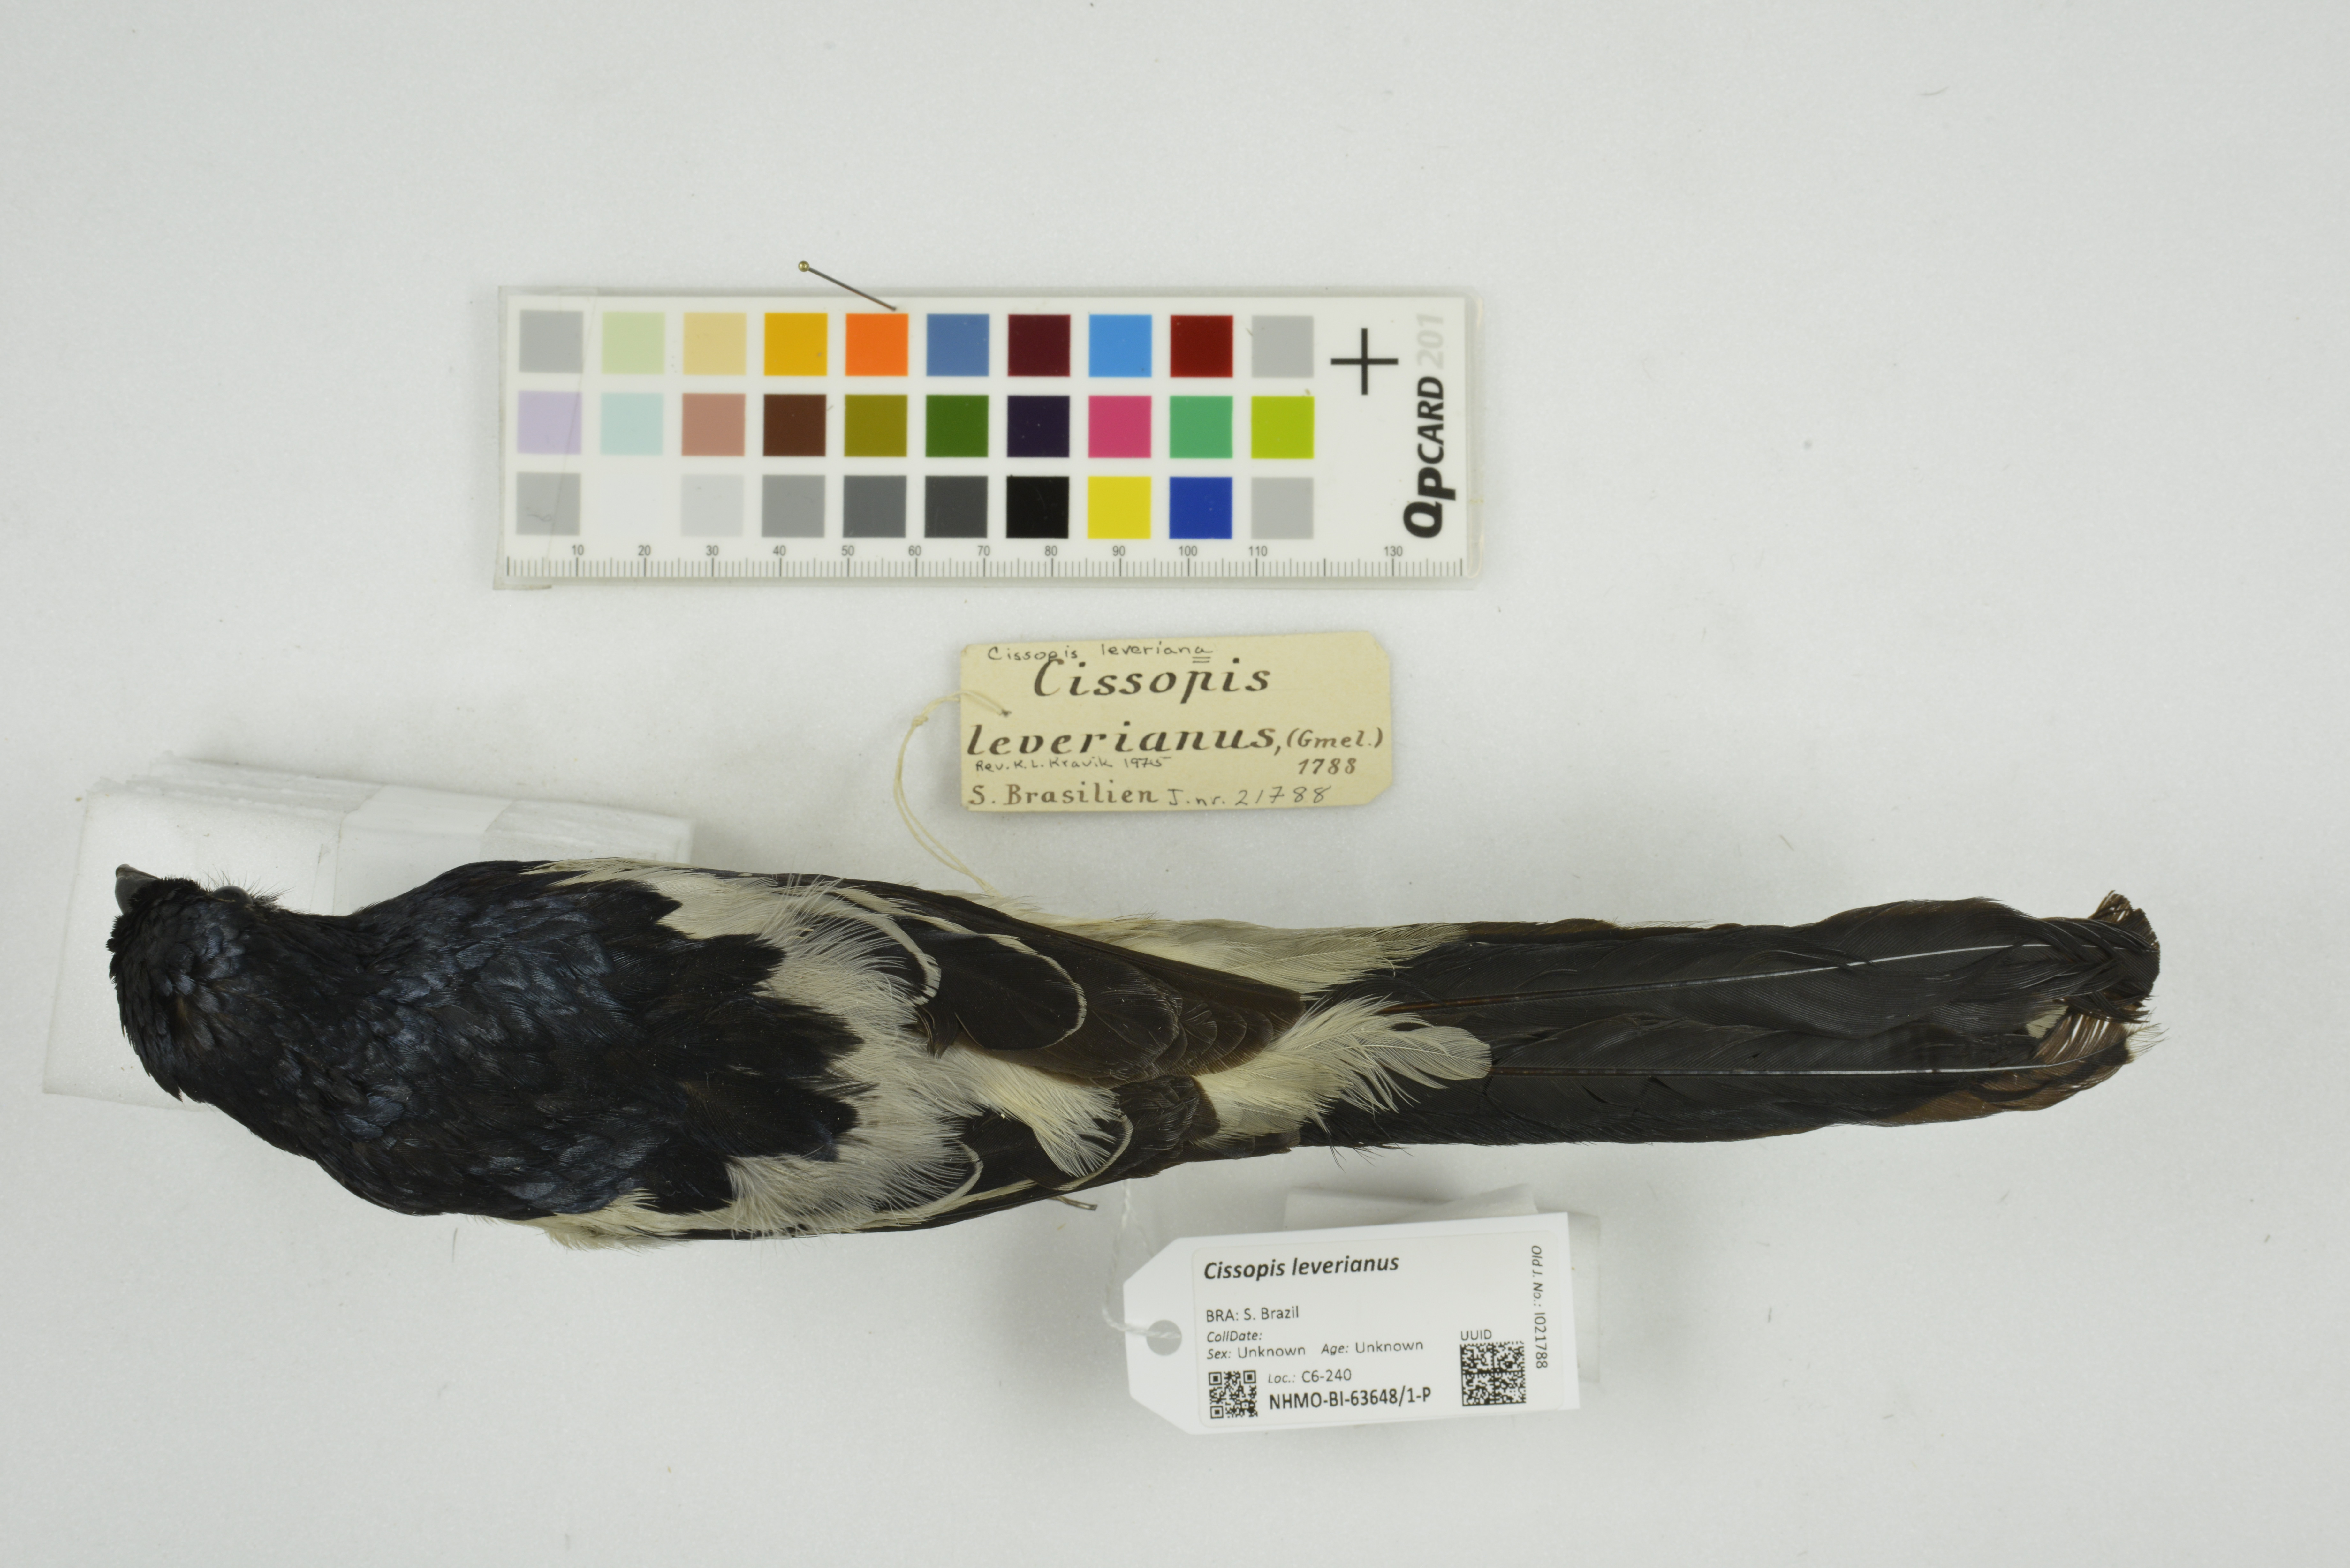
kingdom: Animalia
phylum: Chordata
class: Aves
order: Passeriformes
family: Thraupidae
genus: Cissopis
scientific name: Cissopis leverianus
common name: Magpie tanager
